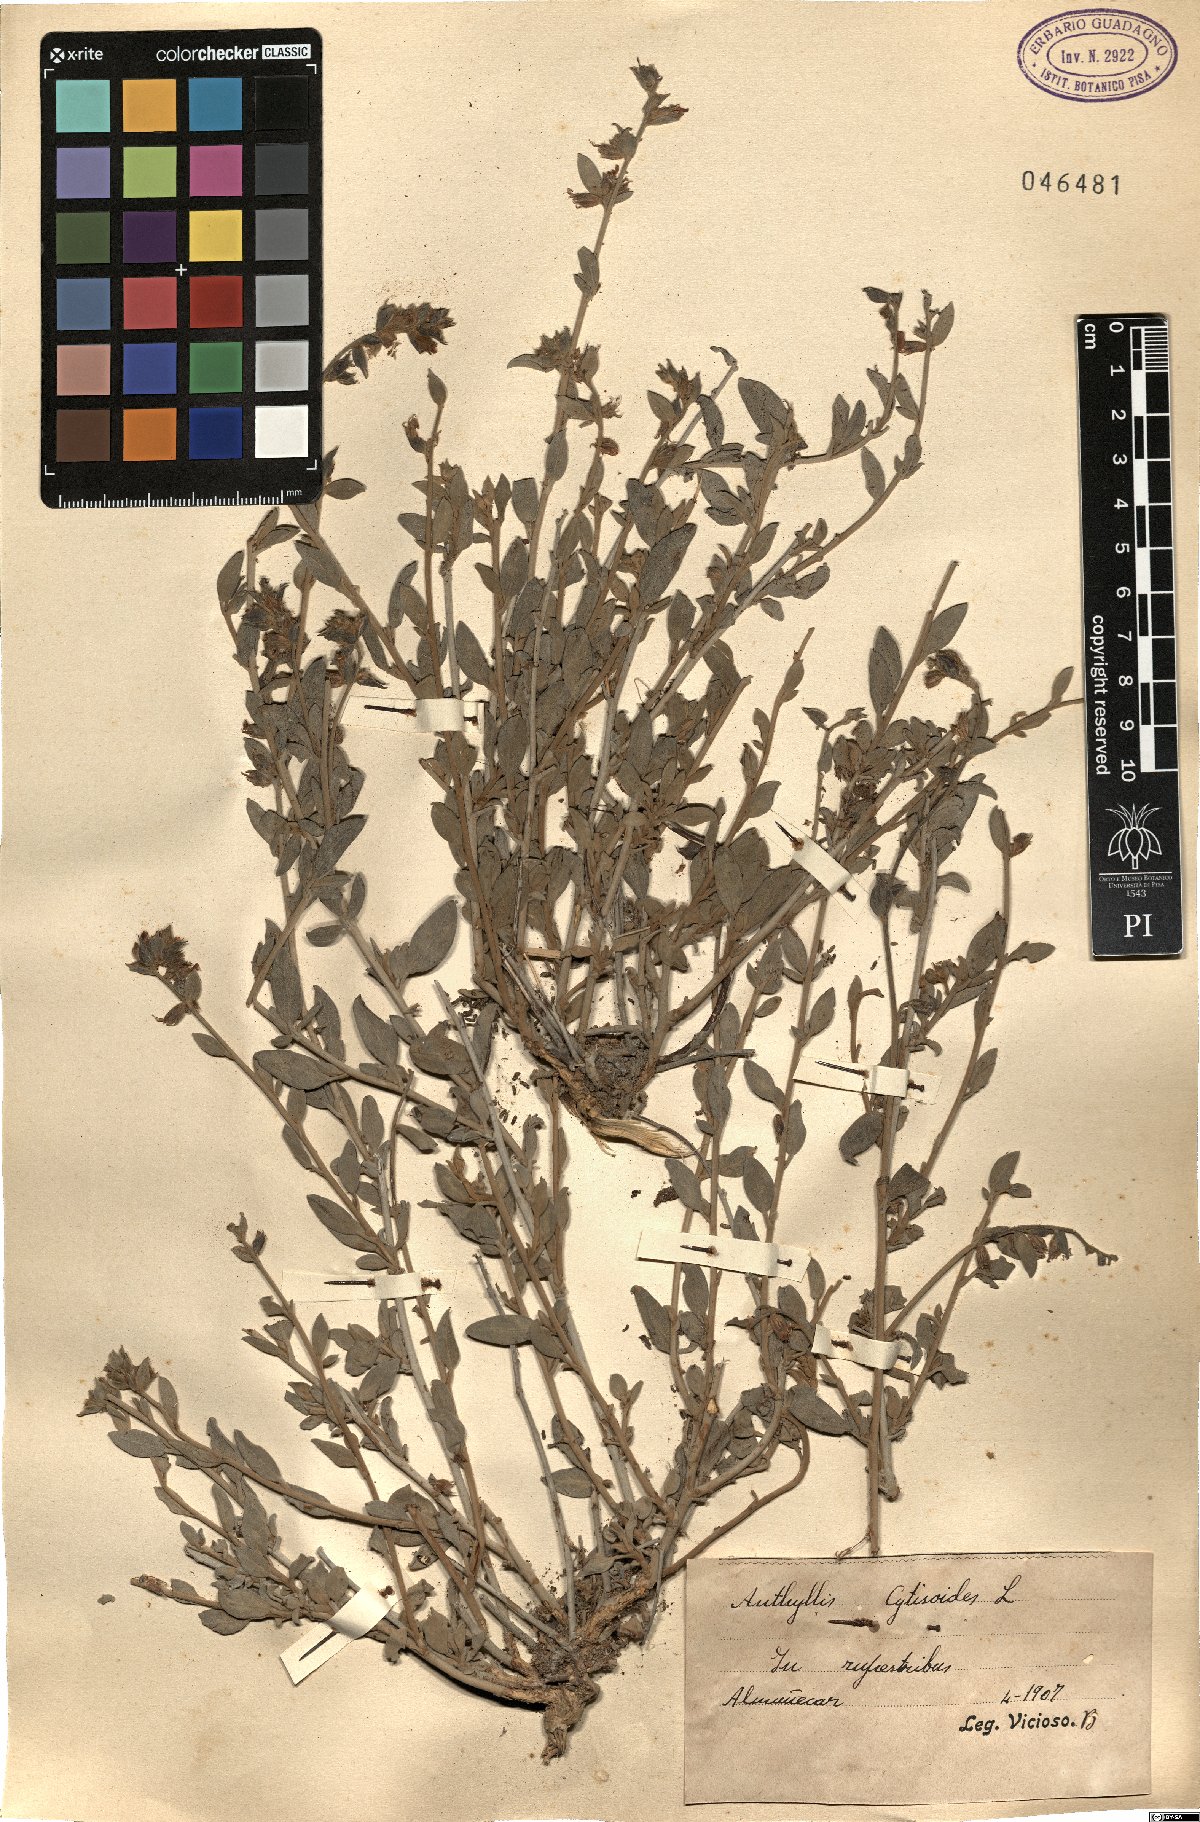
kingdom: Plantae
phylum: Tracheophyta
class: Magnoliopsida
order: Fabales
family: Fabaceae
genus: Anthyllis
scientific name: Anthyllis cytisoides
